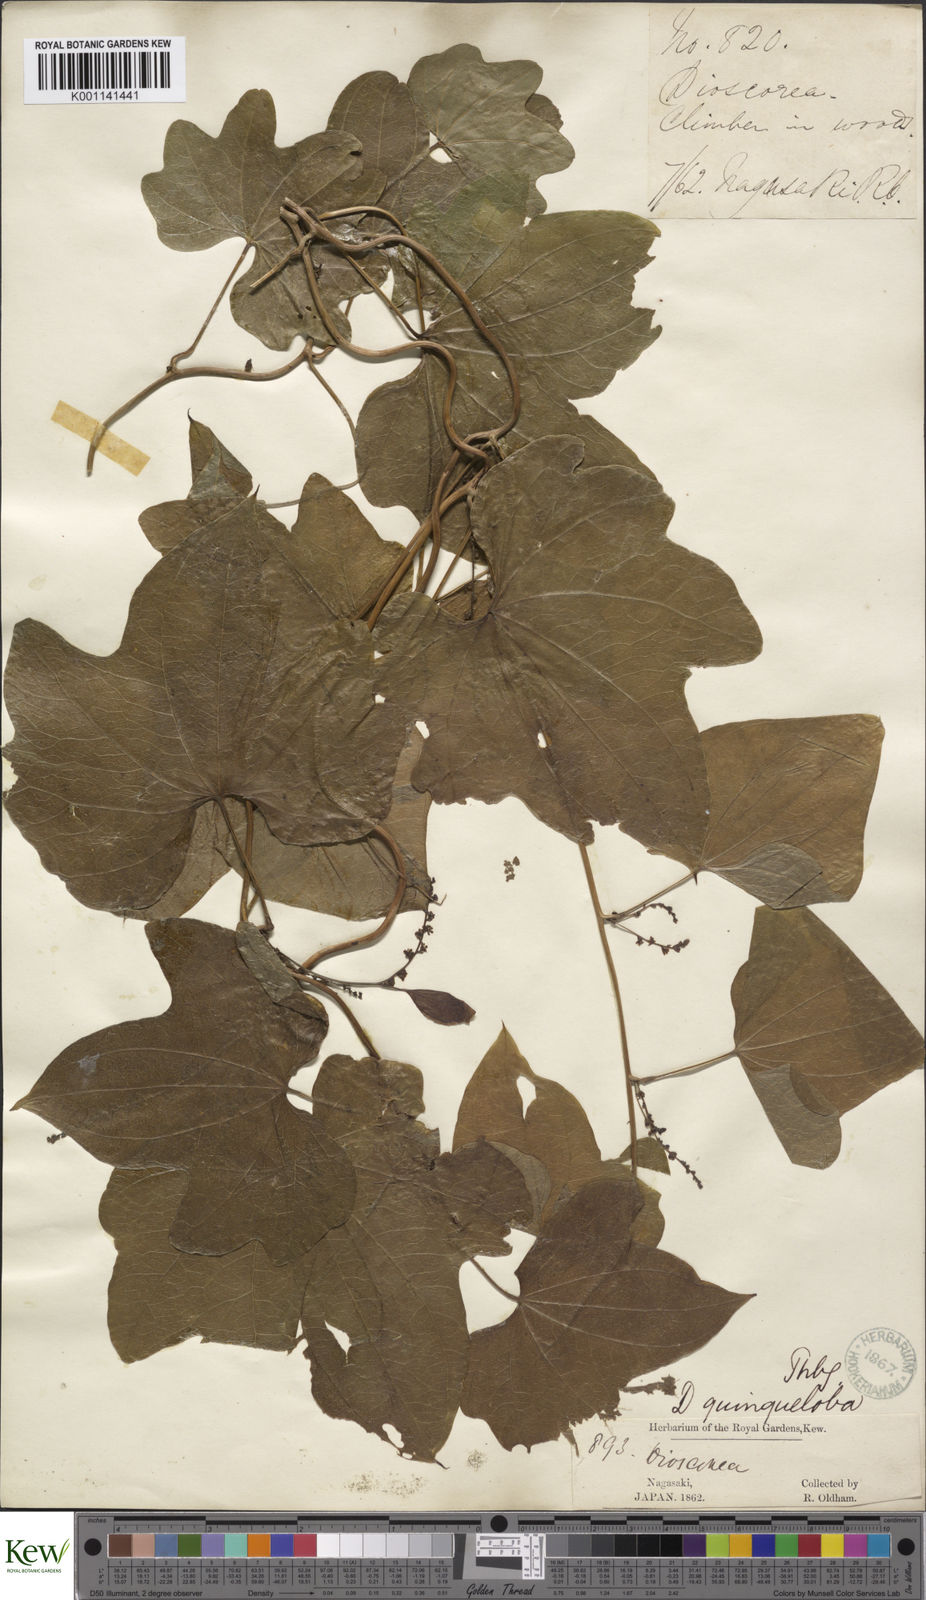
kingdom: Plantae
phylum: Tracheophyta
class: Liliopsida
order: Dioscoreales
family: Dioscoreaceae
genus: Dioscorea
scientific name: Dioscorea quinquelobata
